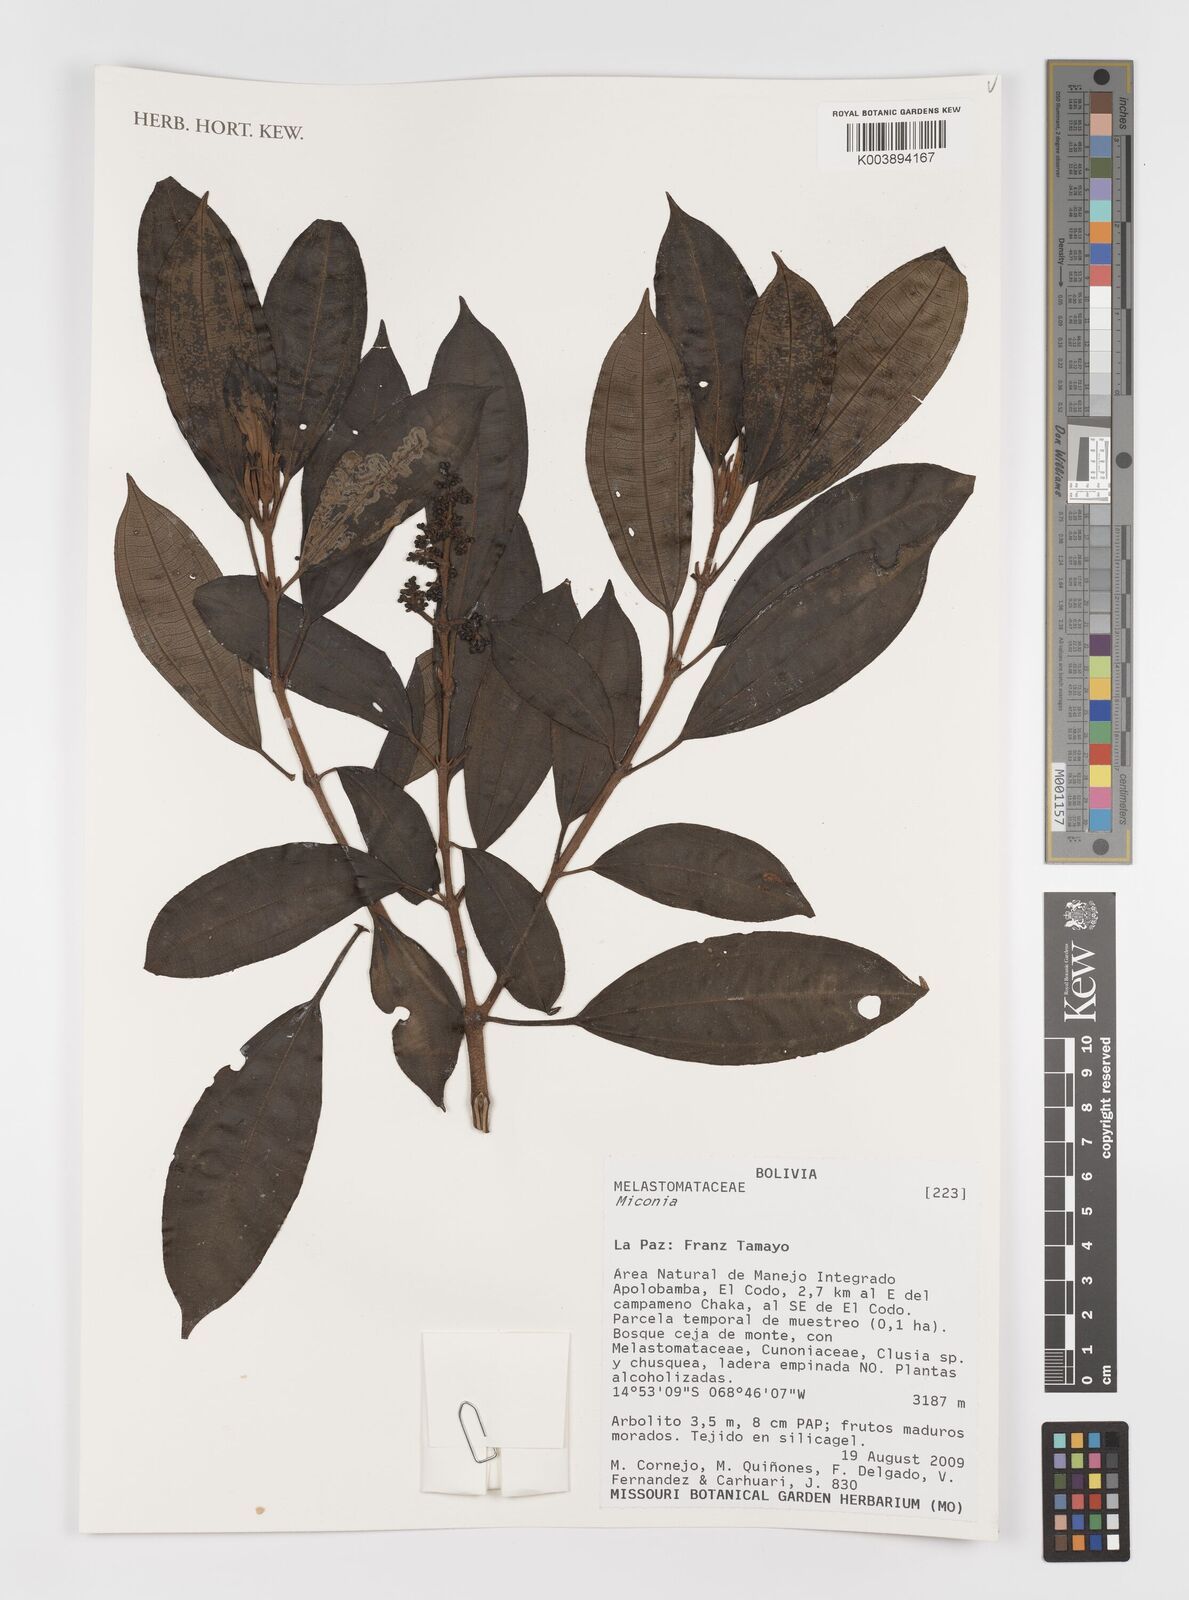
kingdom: Plantae
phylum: Tracheophyta
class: Magnoliopsida
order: Myrtales
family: Melastomataceae
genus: Miconia
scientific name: Miconia
